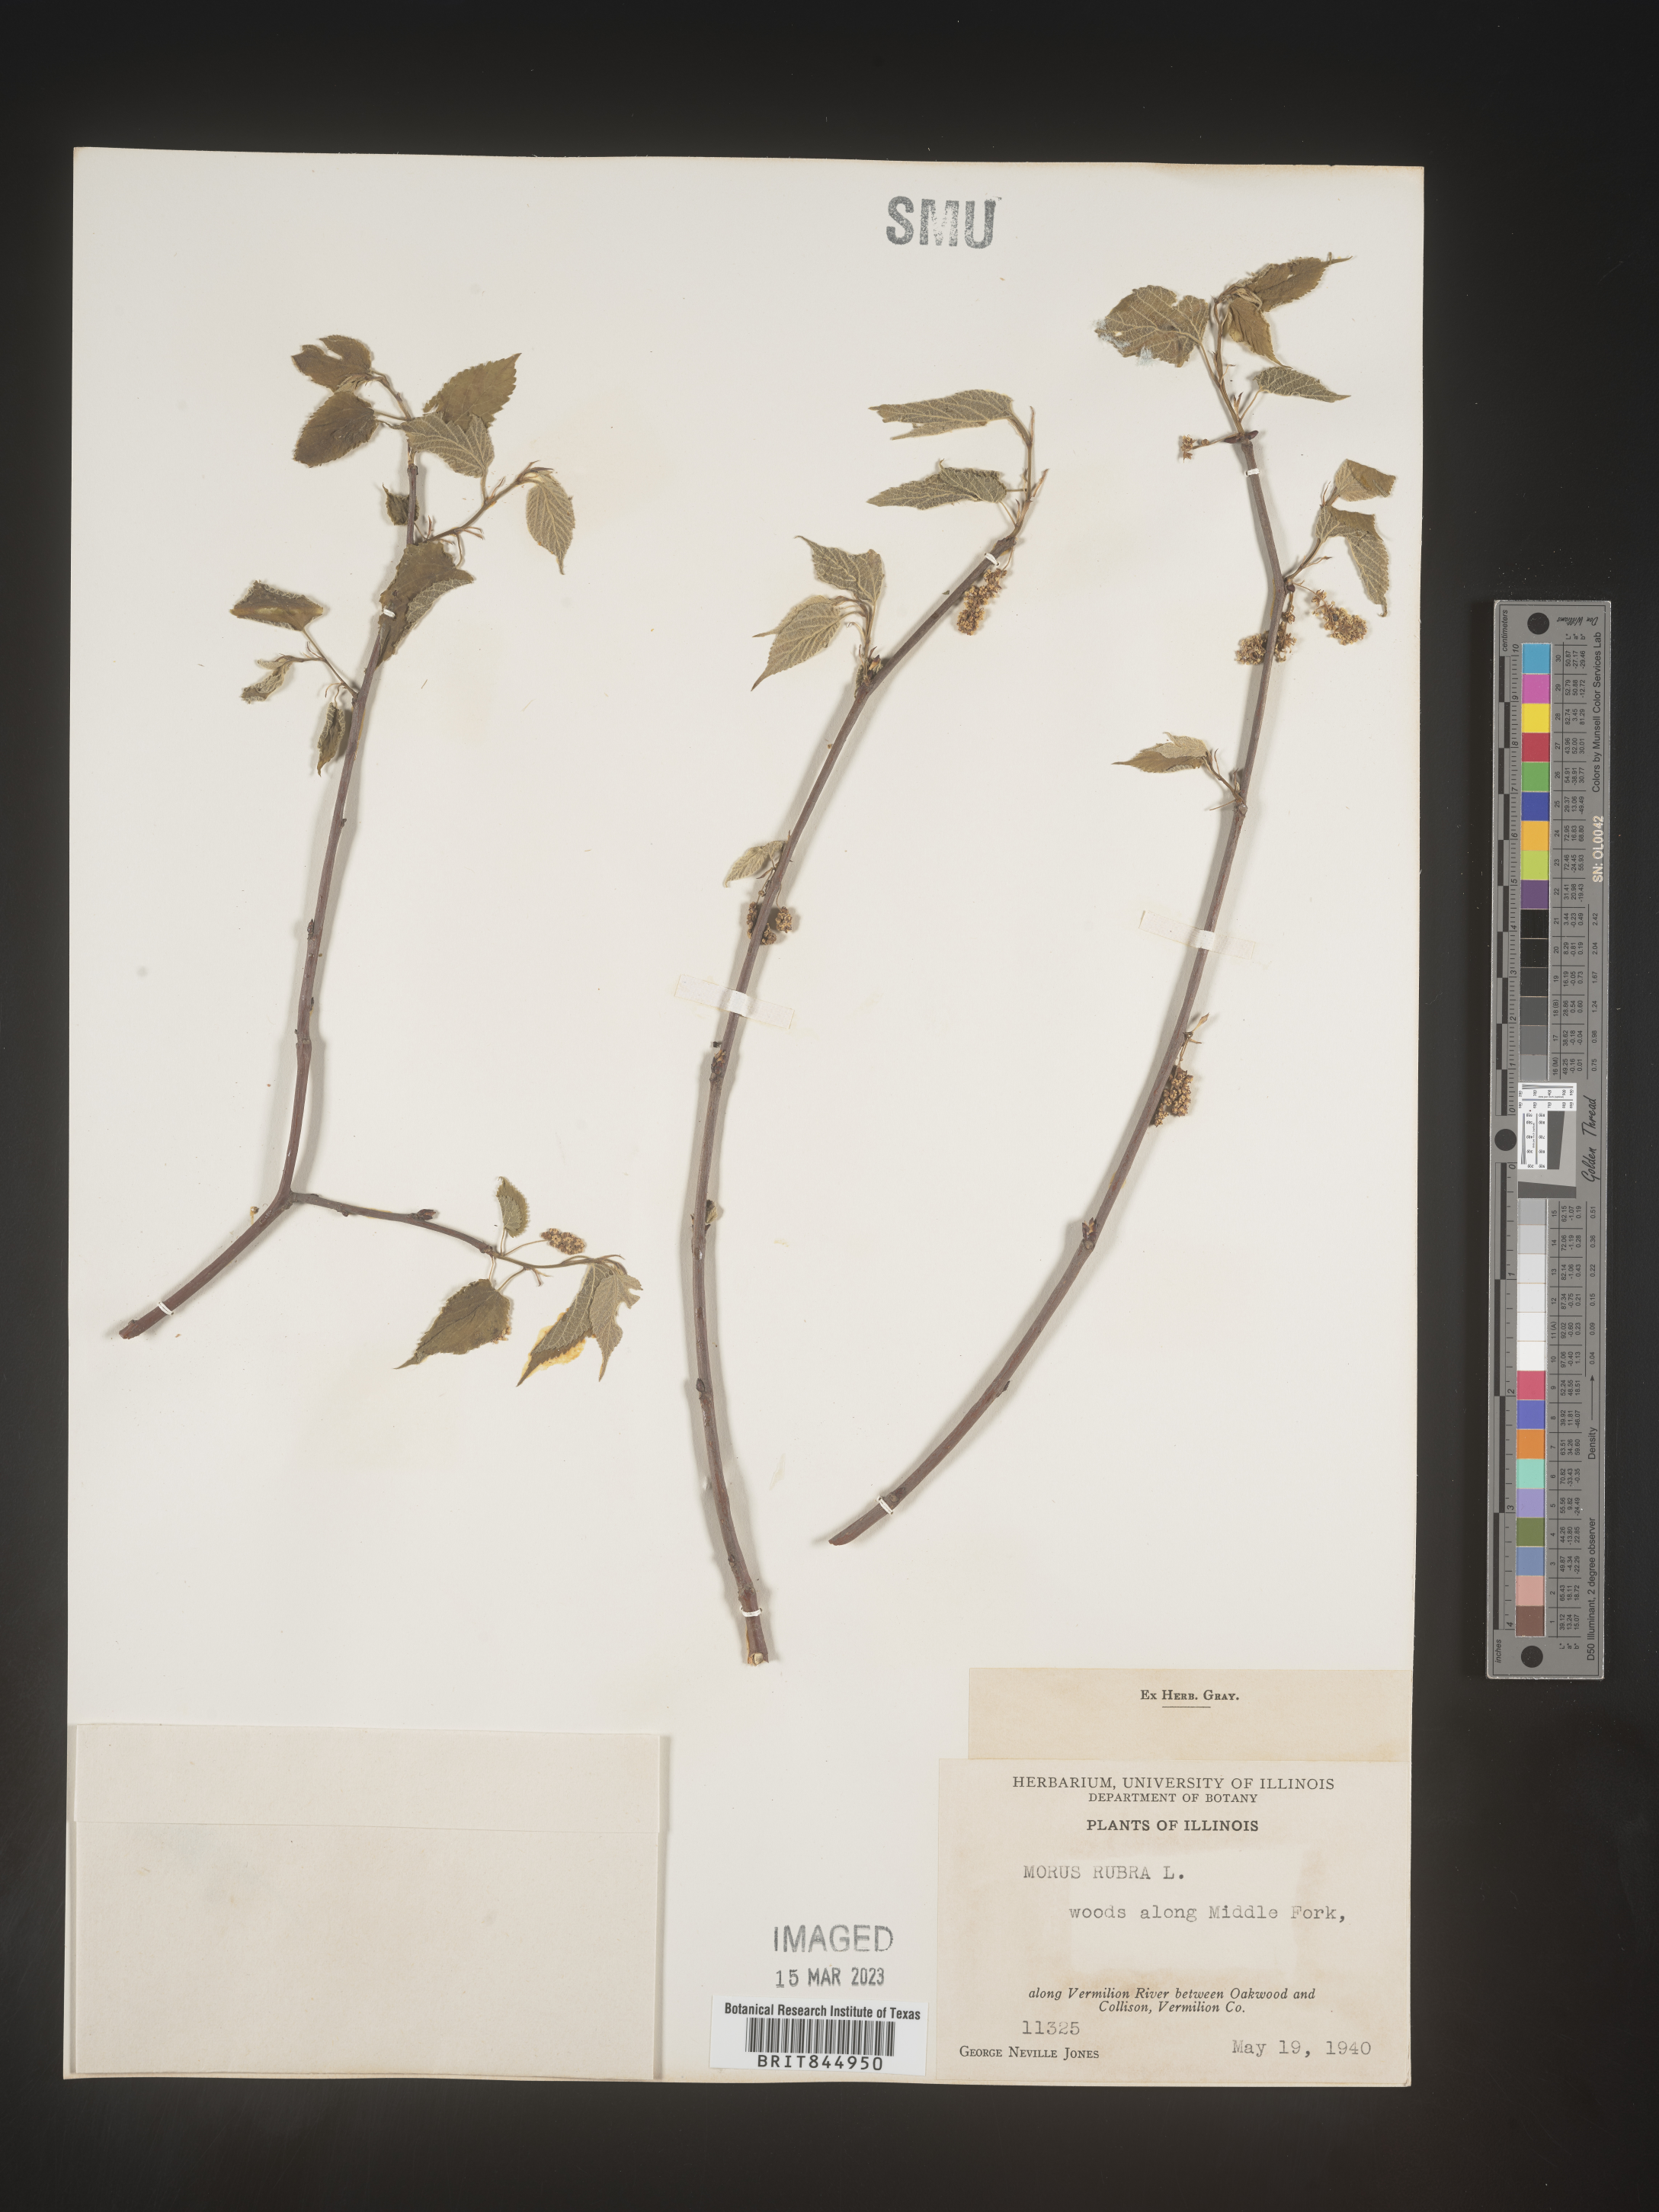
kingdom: Plantae
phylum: Tracheophyta
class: Magnoliopsida
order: Rosales
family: Moraceae
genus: Morus
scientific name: Morus rubra
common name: Red mulberry
